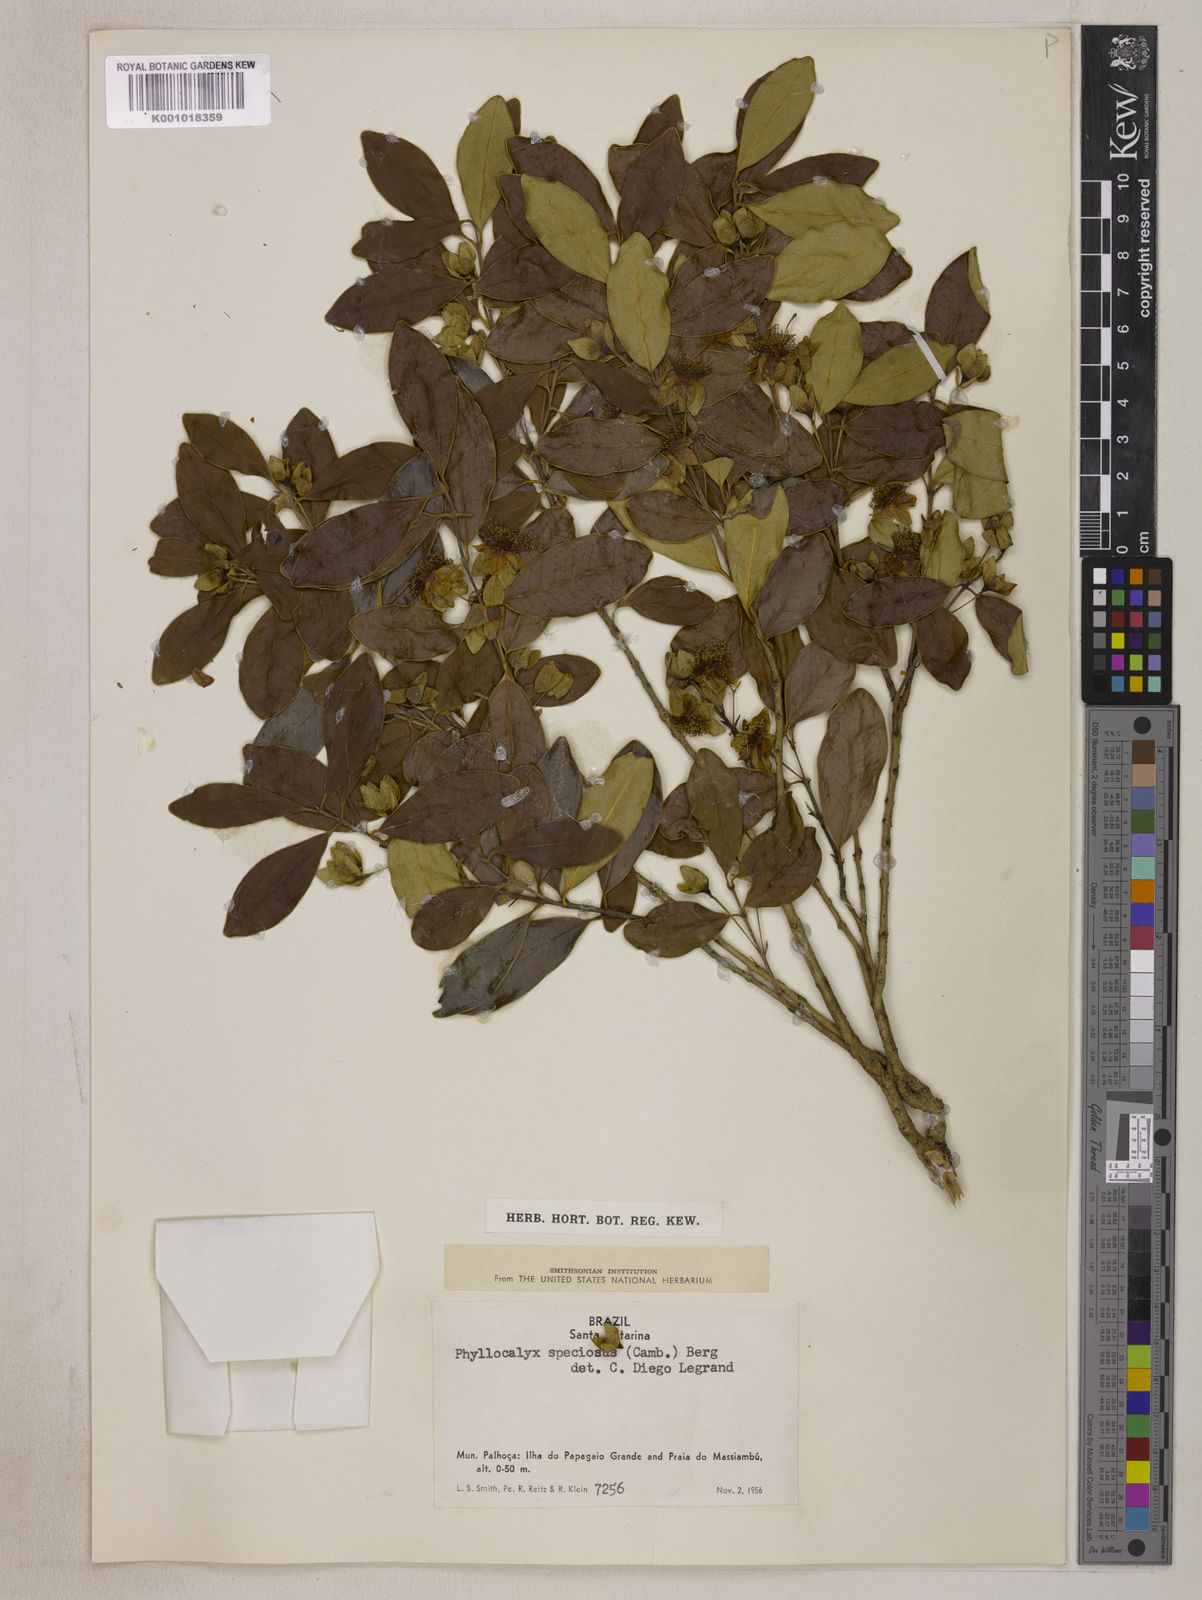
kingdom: Plantae
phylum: Tracheophyta
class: Magnoliopsida
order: Myrtales
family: Myrtaceae
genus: Eugenia
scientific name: Eugenia speciosa
